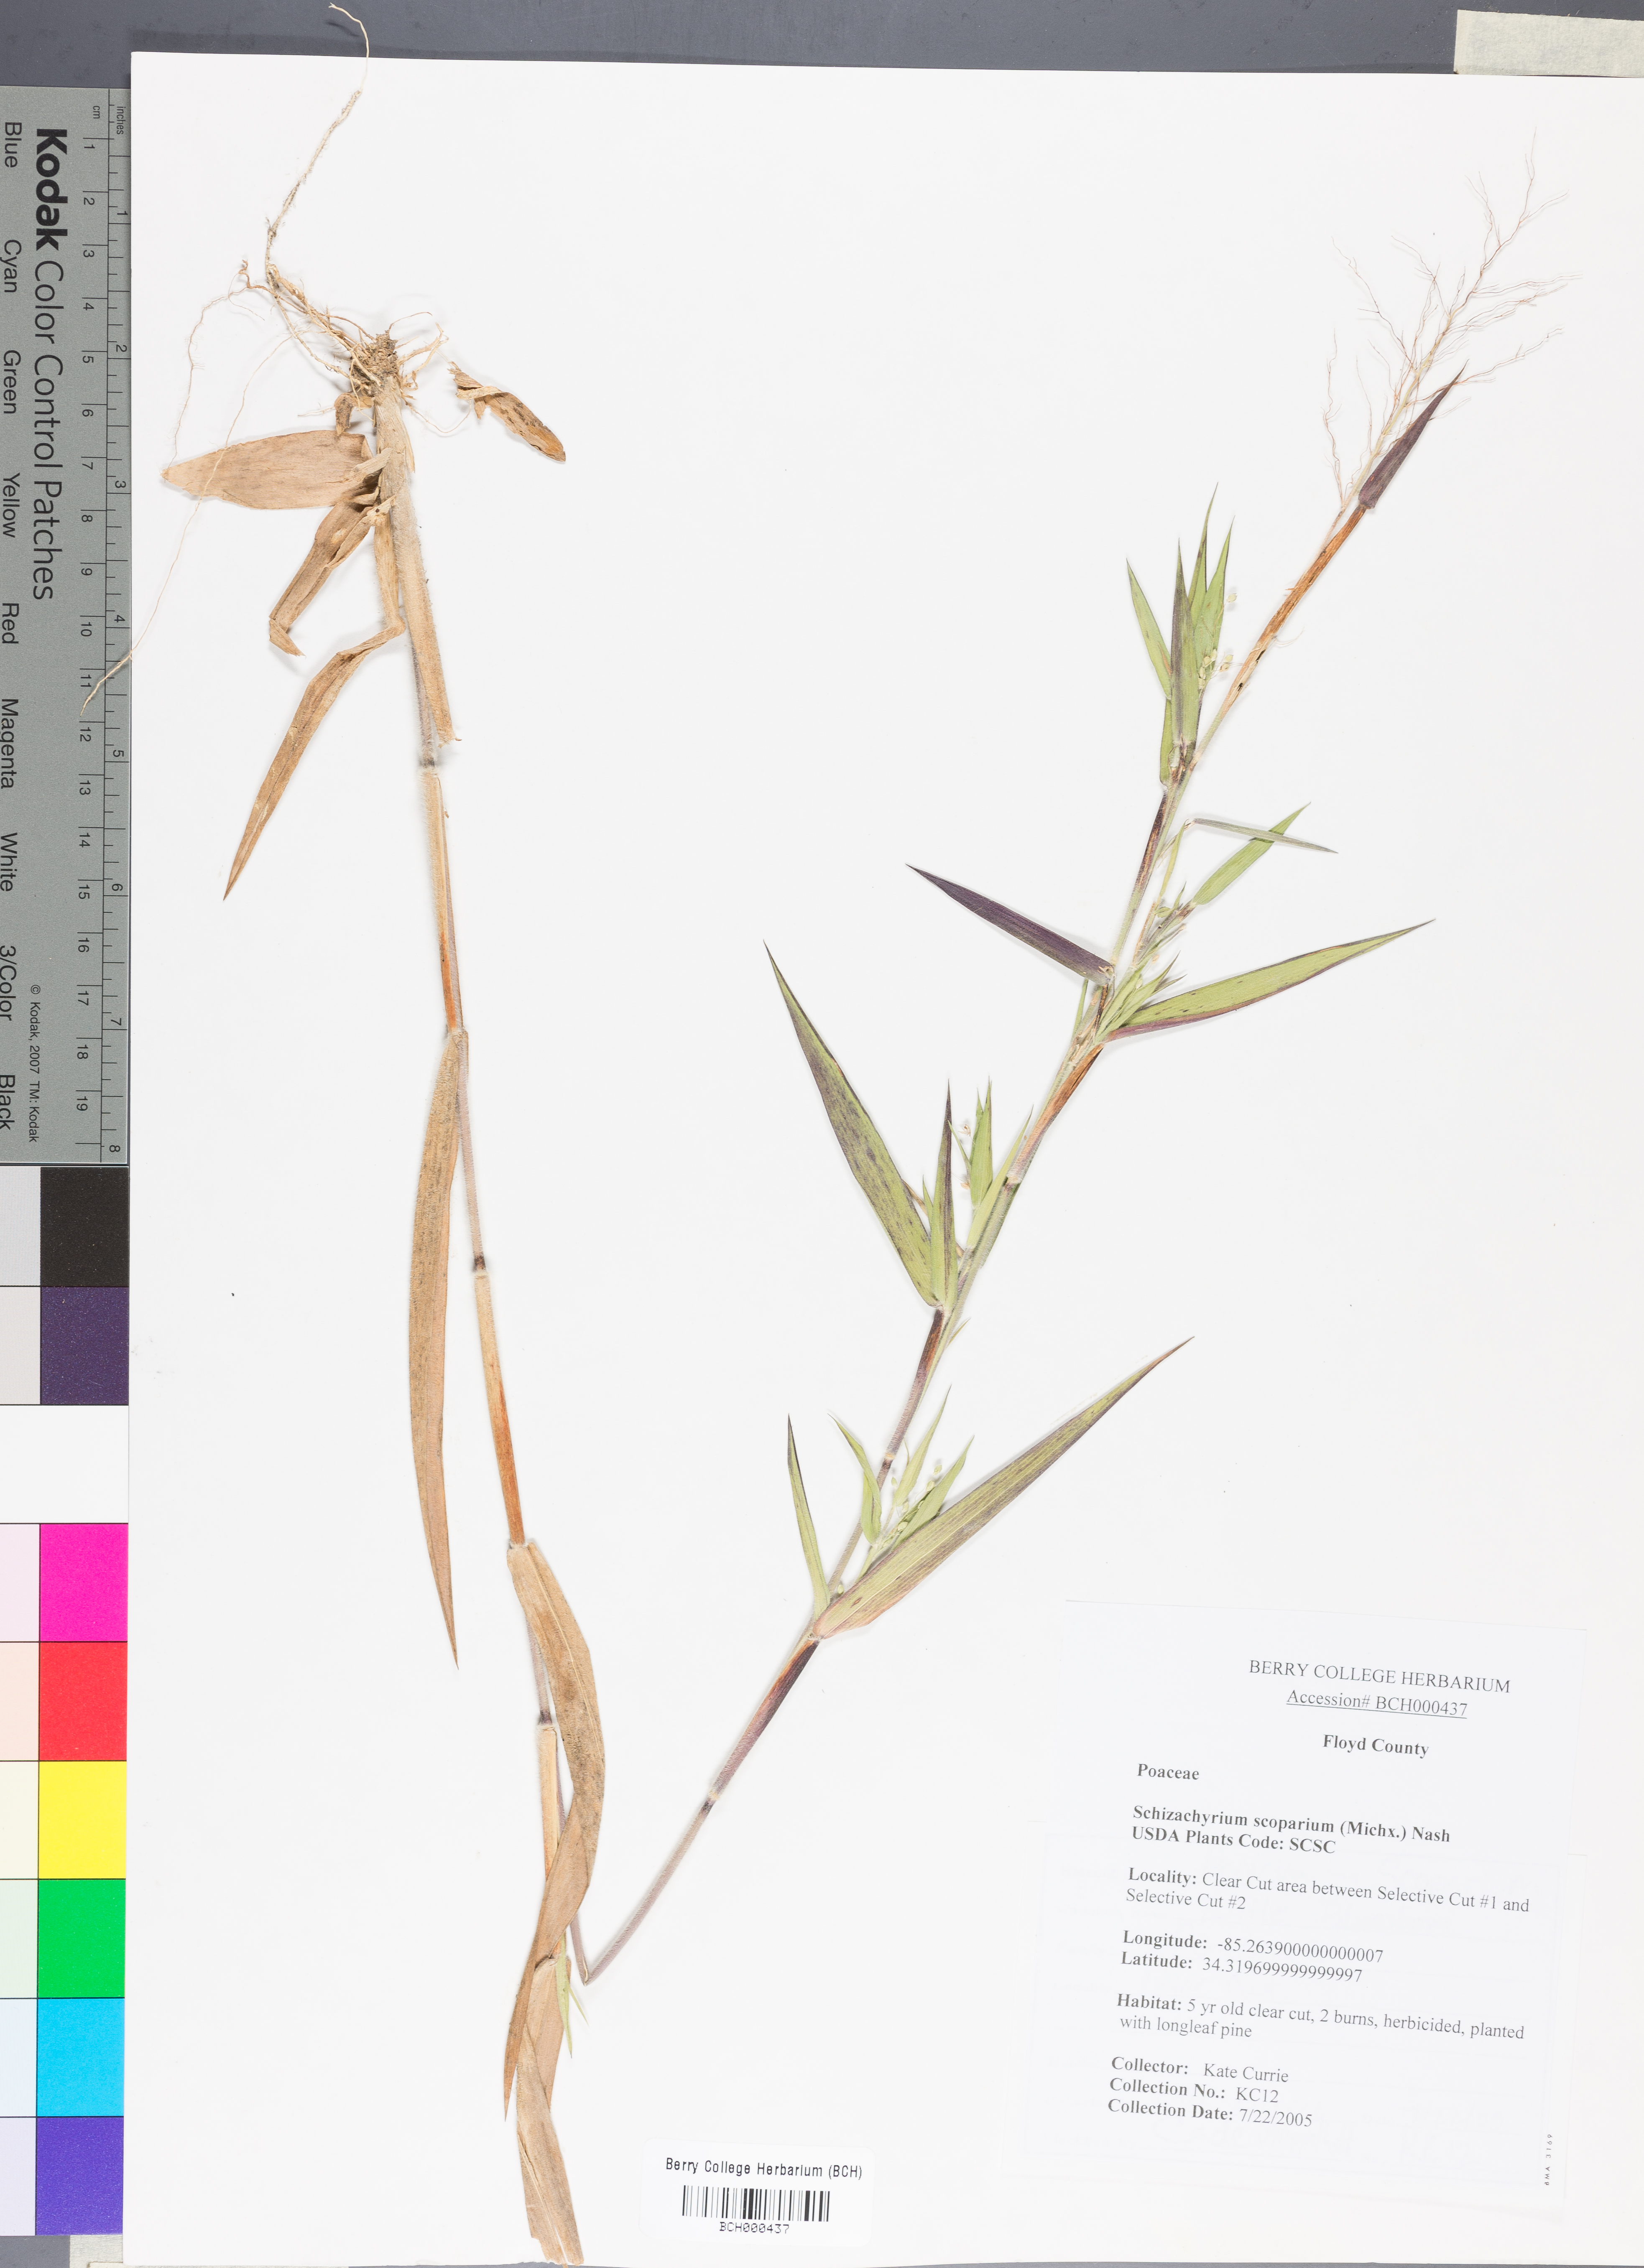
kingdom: Plantae
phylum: Tracheophyta
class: Liliopsida
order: Poales
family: Poaceae
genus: Schizachyrium
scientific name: Schizachyrium scoparium
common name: Little bluestem
